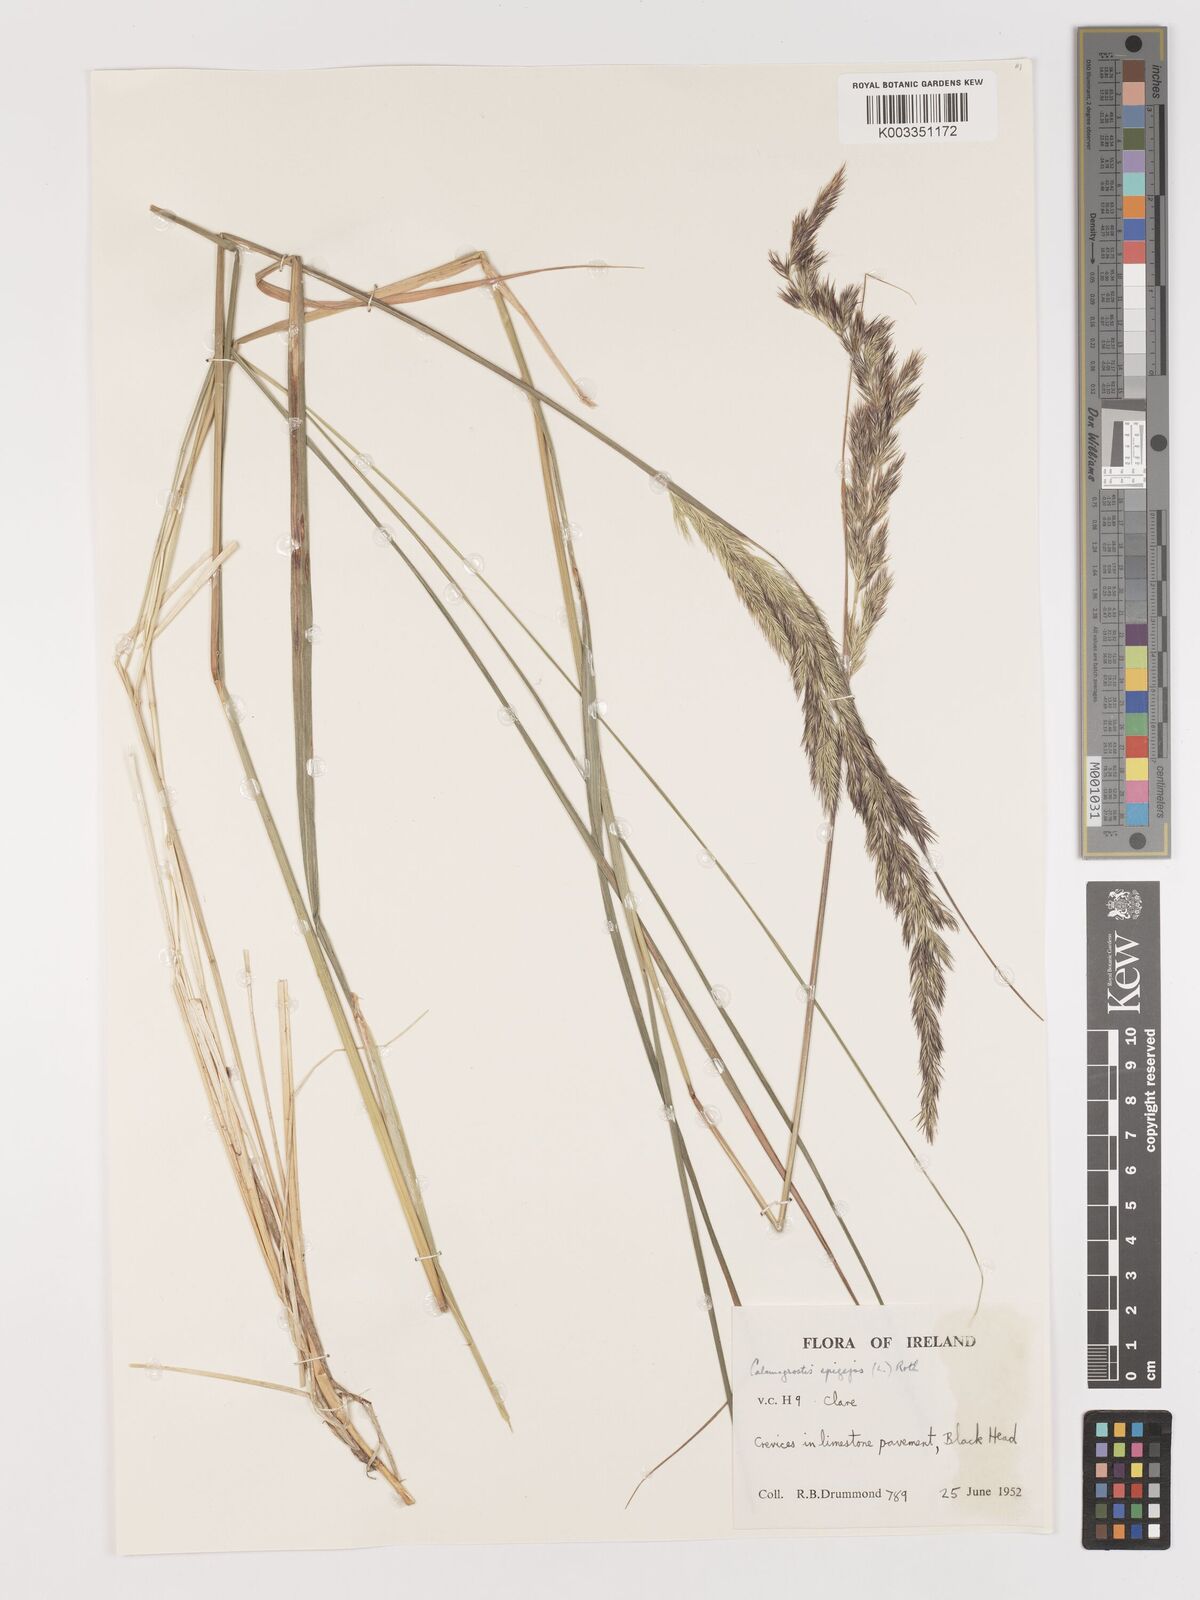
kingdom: Plantae
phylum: Tracheophyta
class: Liliopsida
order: Poales
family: Poaceae
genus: Calamagrostis
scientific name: Calamagrostis
